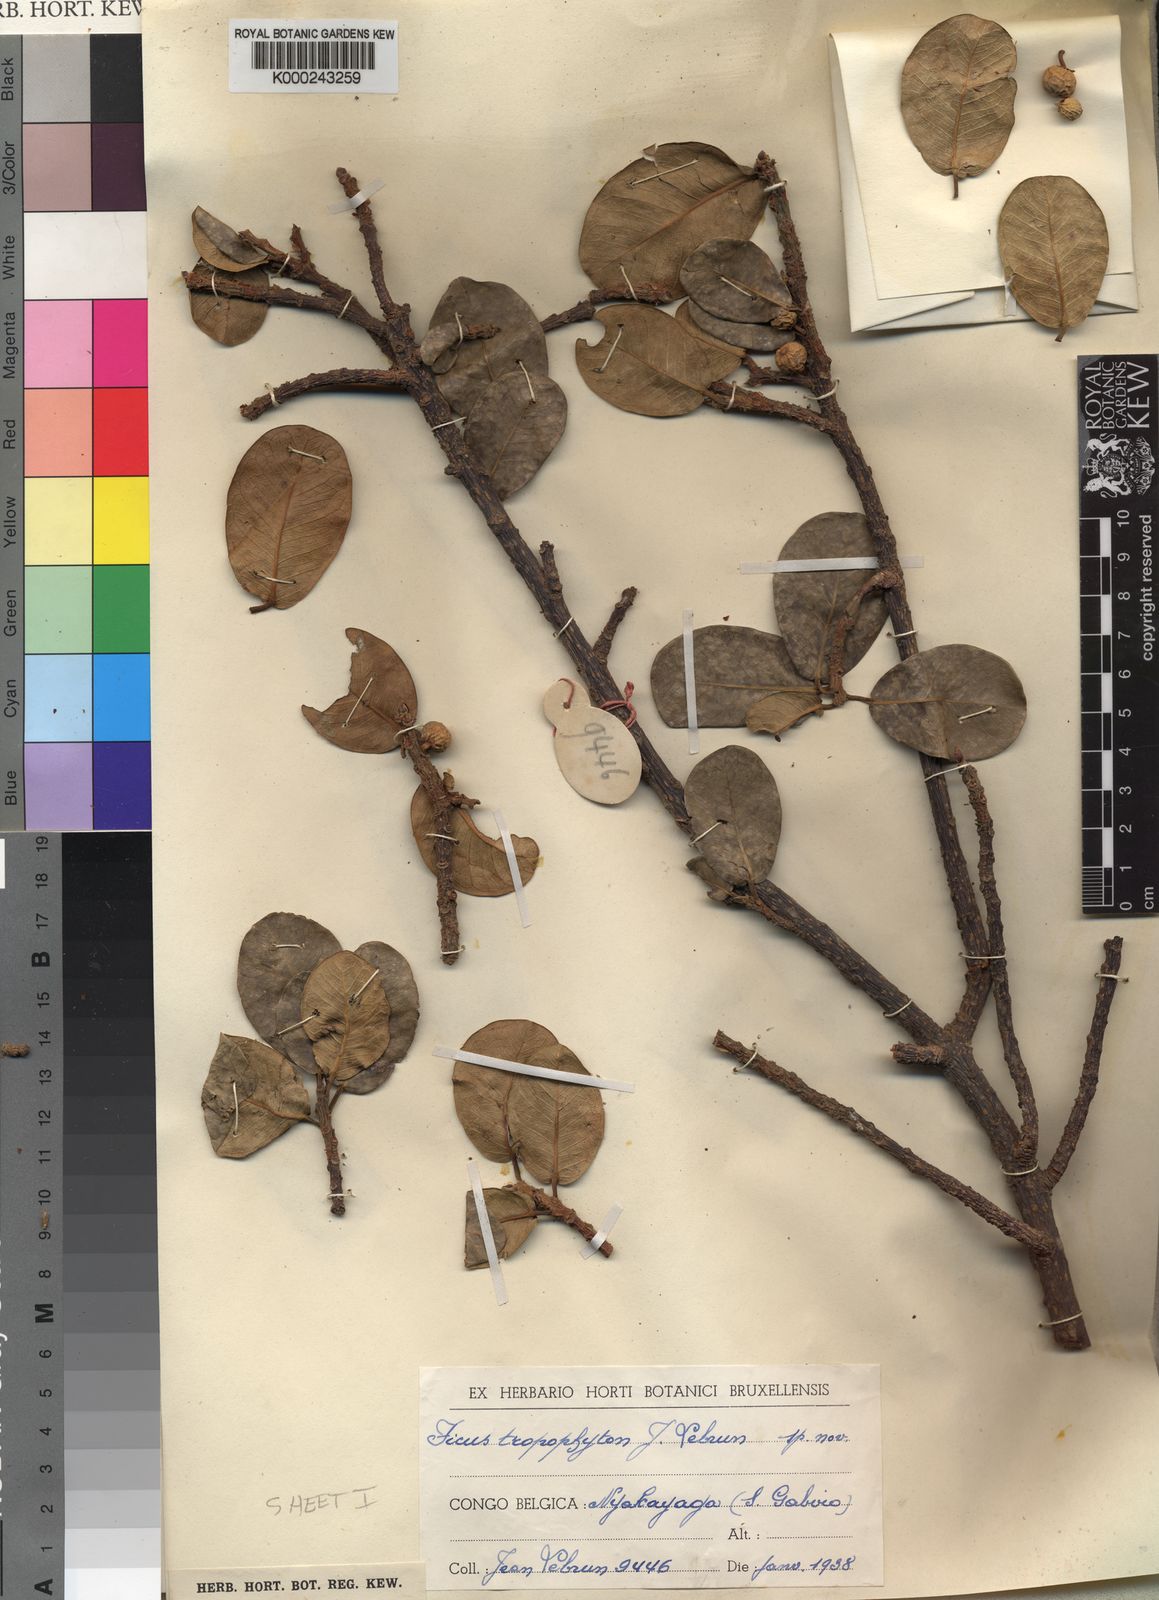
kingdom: Plantae
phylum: Tracheophyta
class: Magnoliopsida
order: Rosales
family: Moraceae
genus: Ficus
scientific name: Ficus thonningii
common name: Fig
